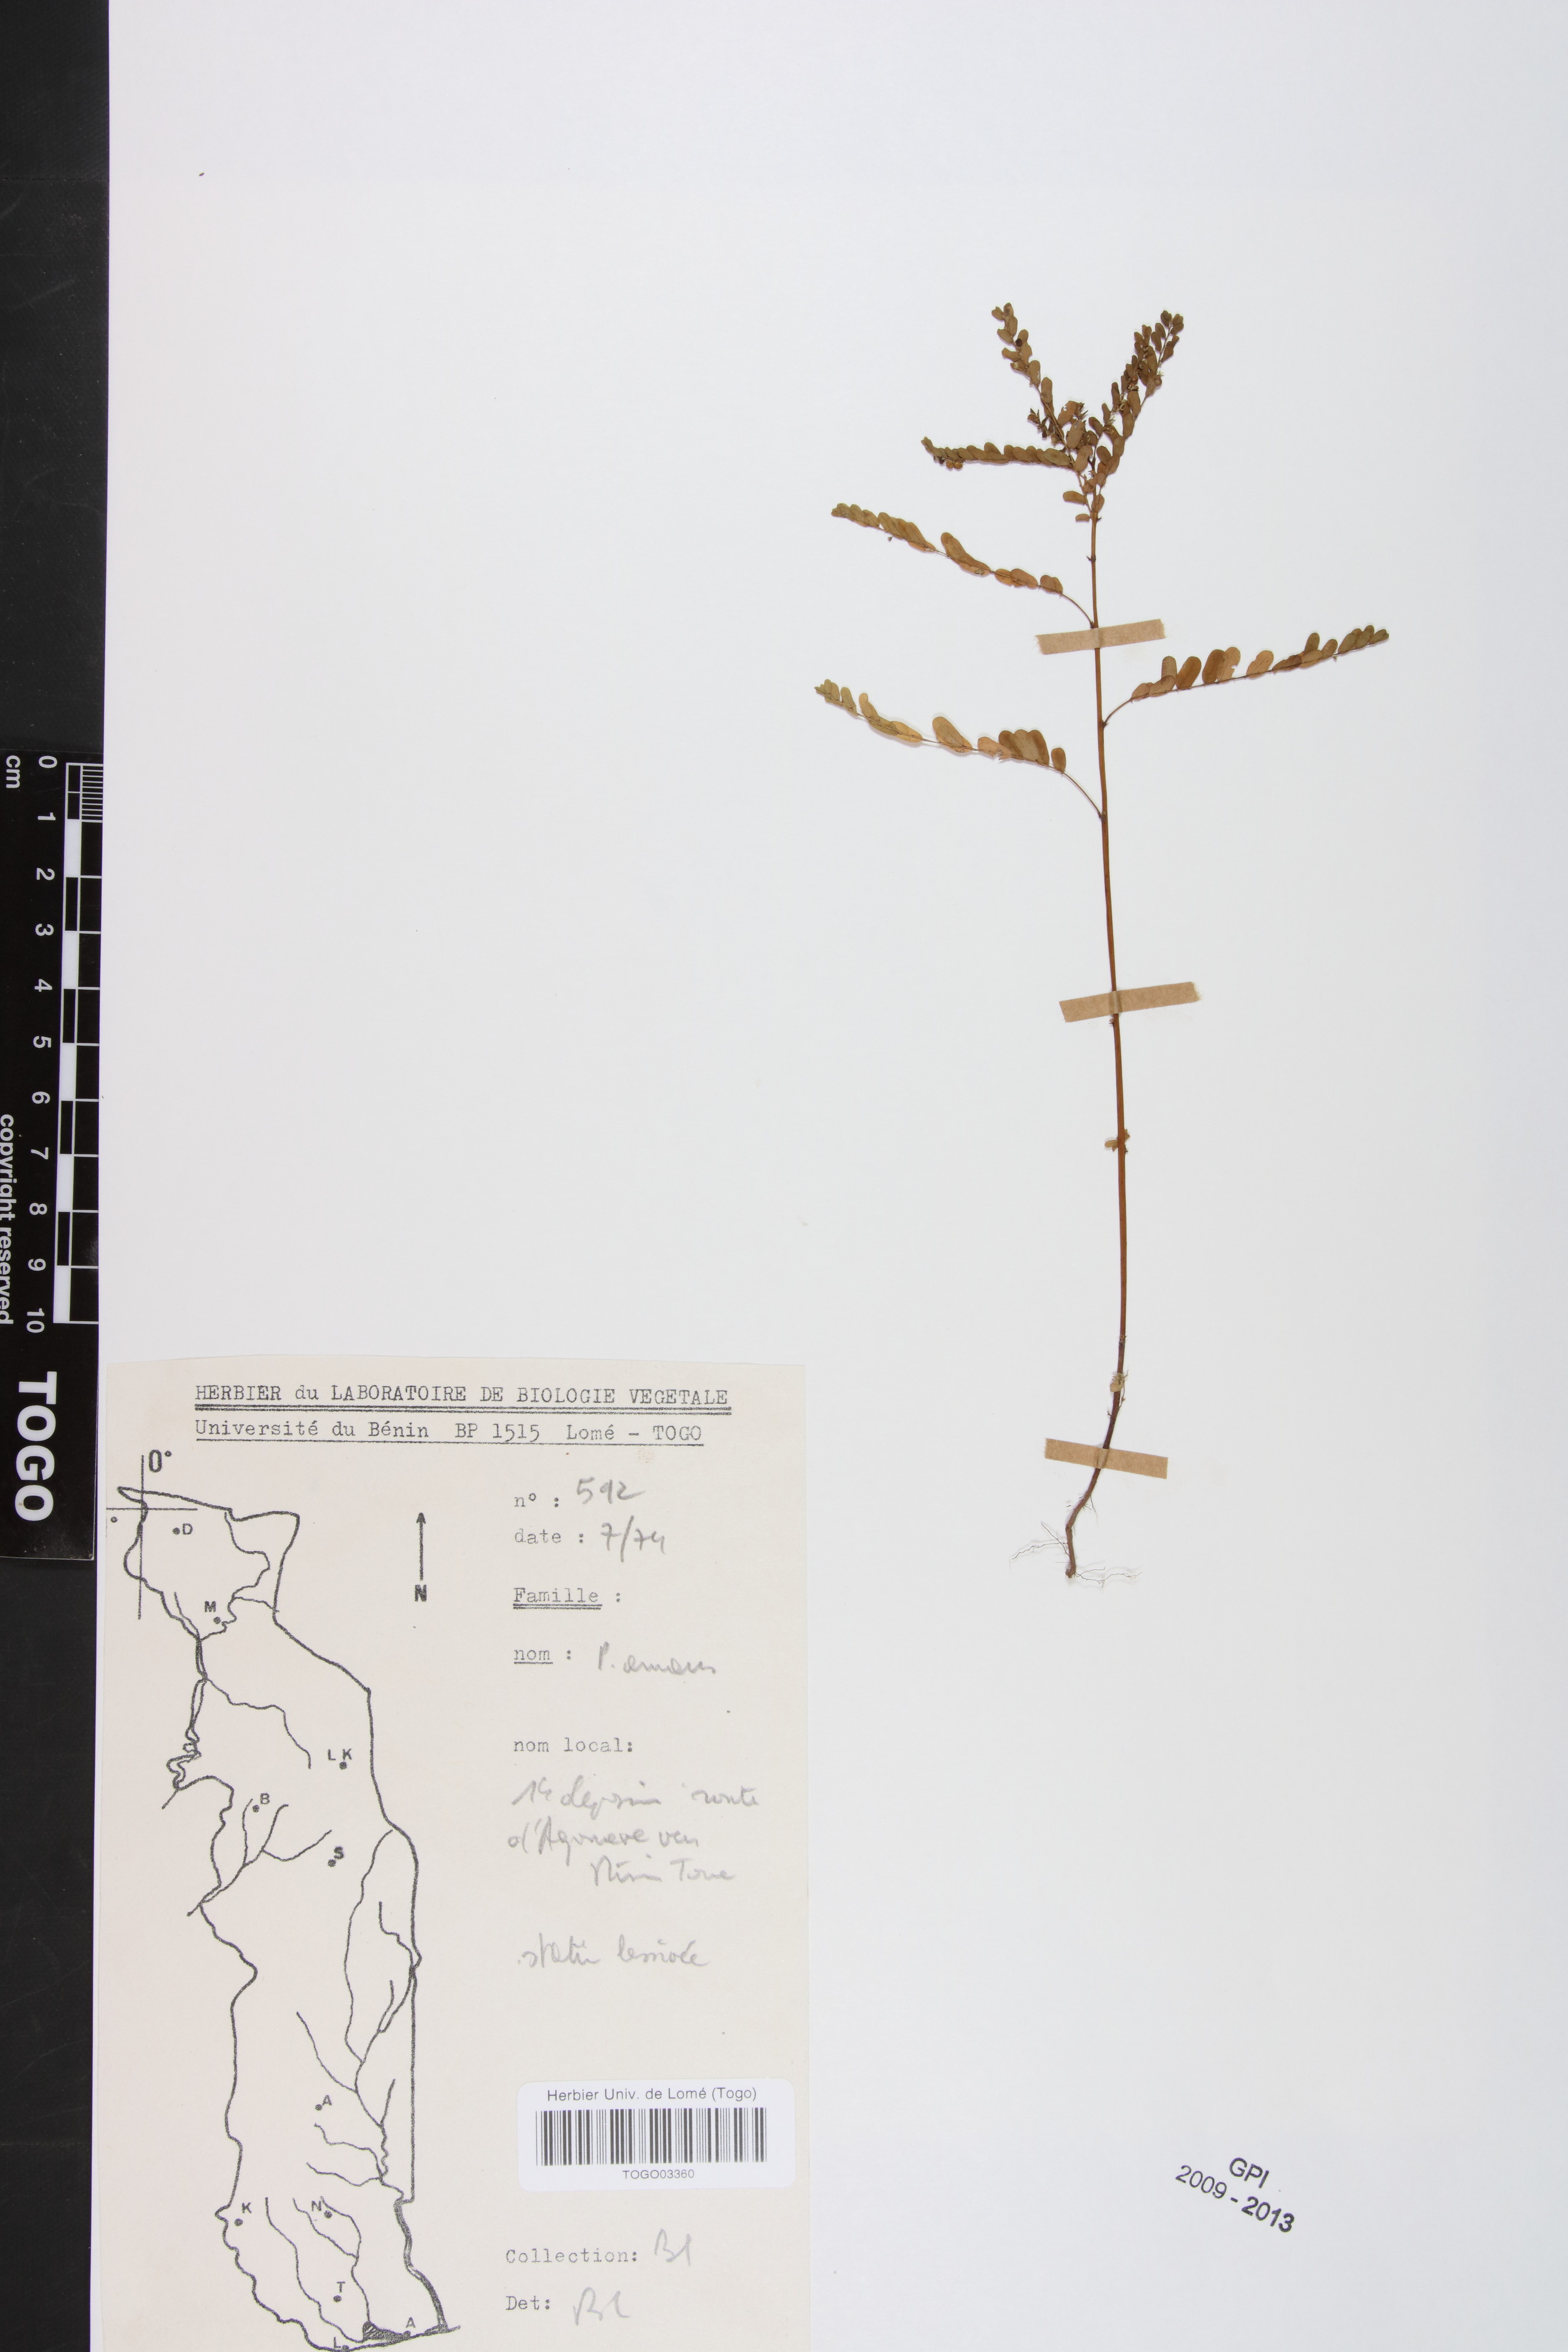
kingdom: Plantae
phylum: Tracheophyta
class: Magnoliopsida
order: Malpighiales
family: Phyllanthaceae
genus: Phyllanthus
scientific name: Phyllanthus amarus
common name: Carry me seed
